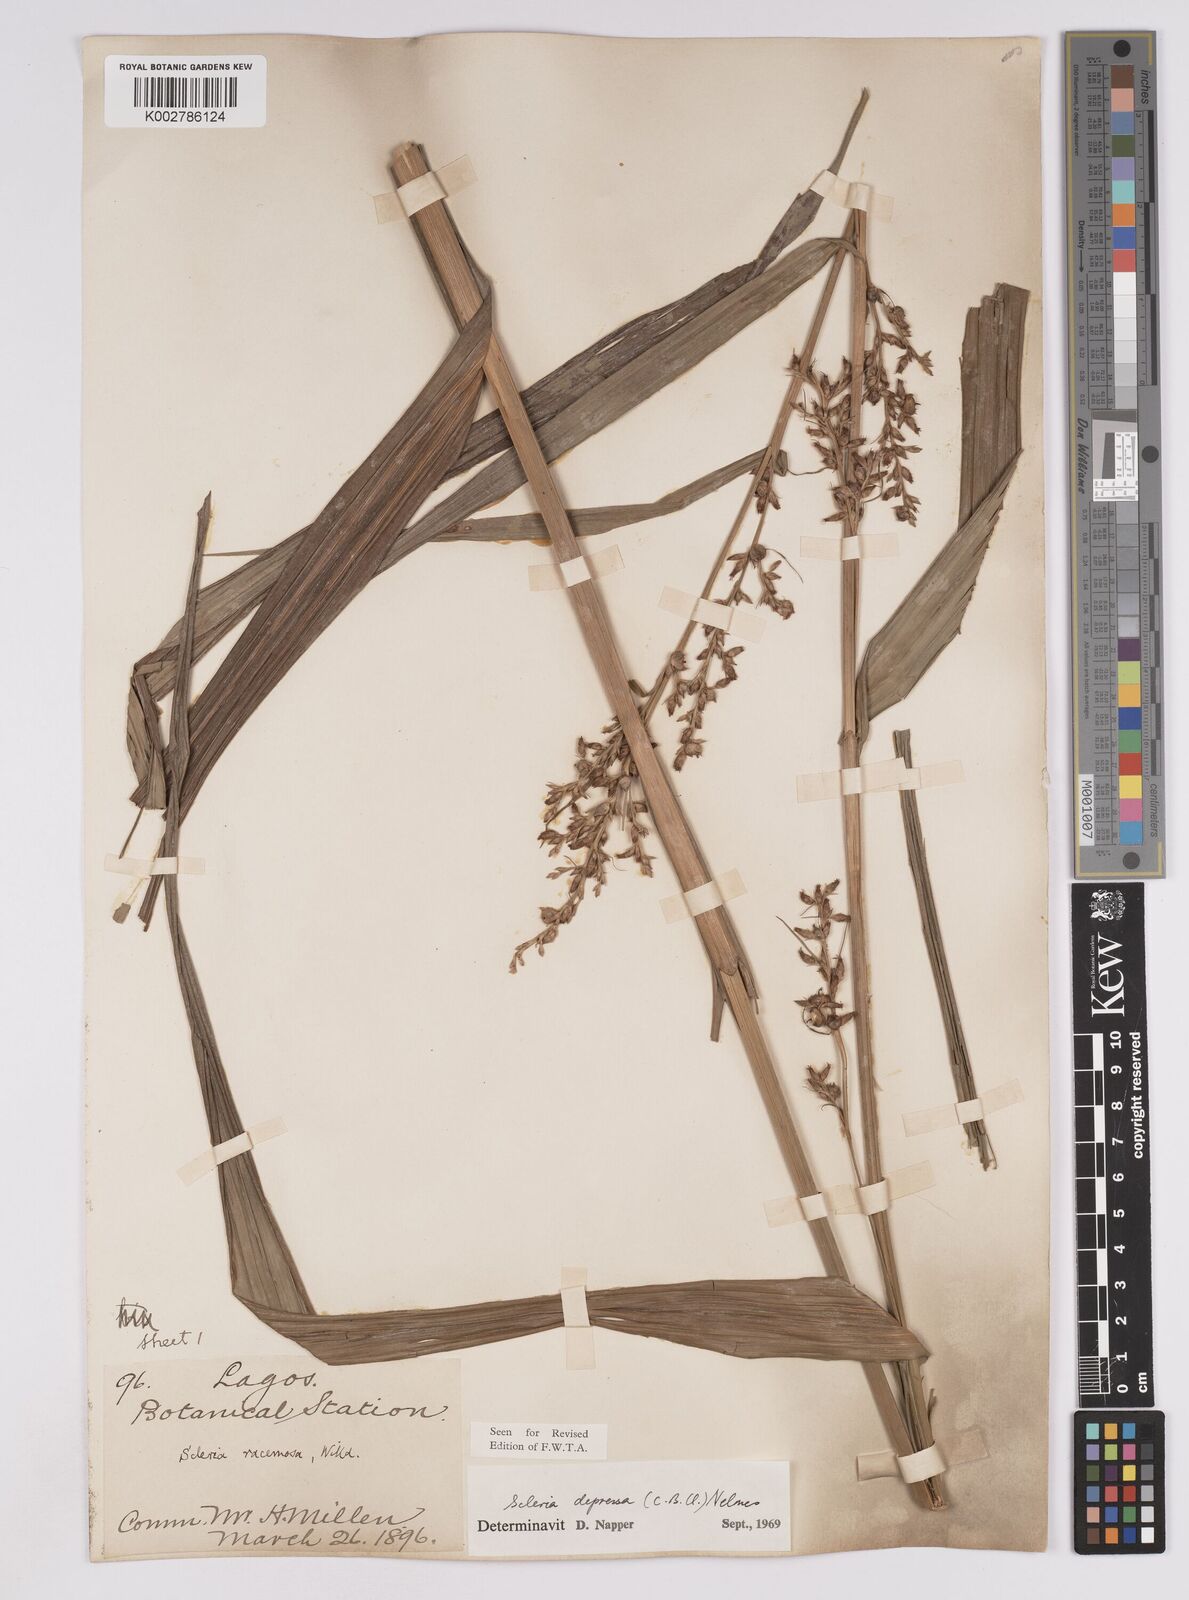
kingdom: Plantae
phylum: Tracheophyta
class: Liliopsida
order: Poales
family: Cyperaceae
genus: Scleria
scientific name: Scleria depressa
